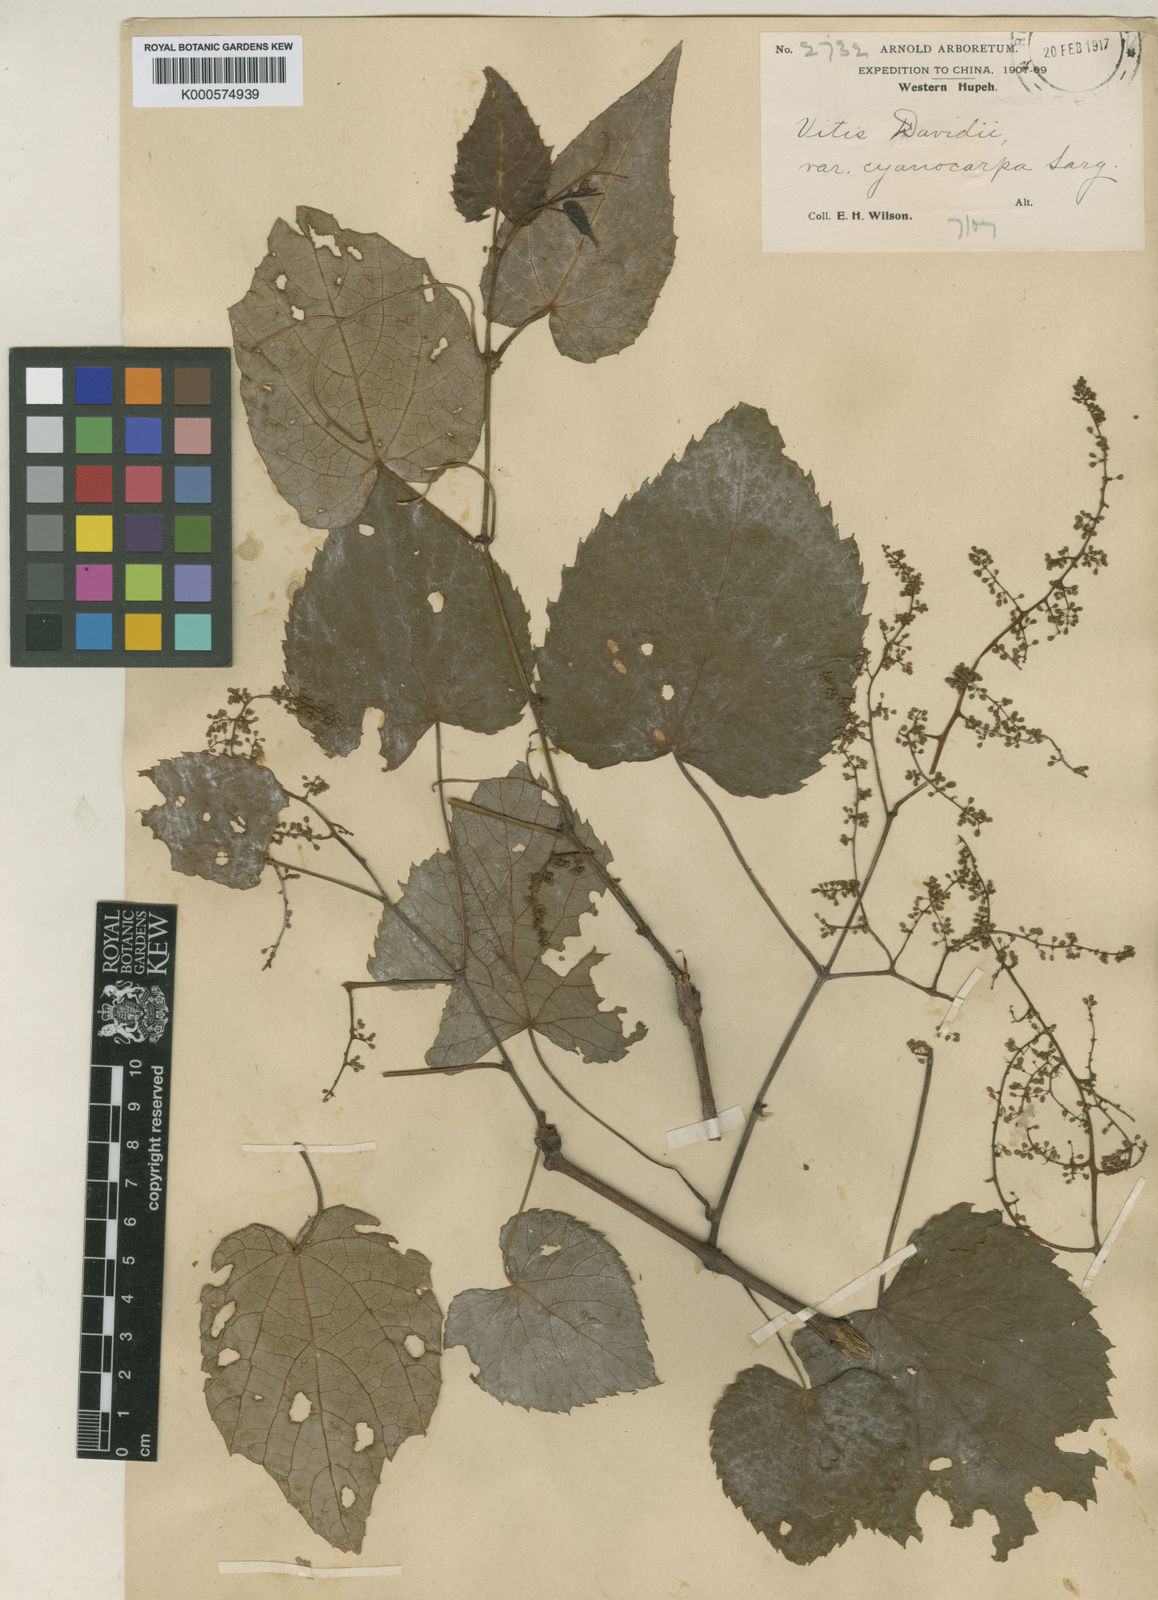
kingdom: Plantae
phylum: Tracheophyta
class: Magnoliopsida
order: Vitales
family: Vitaceae
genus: Vitis
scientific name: Vitis
